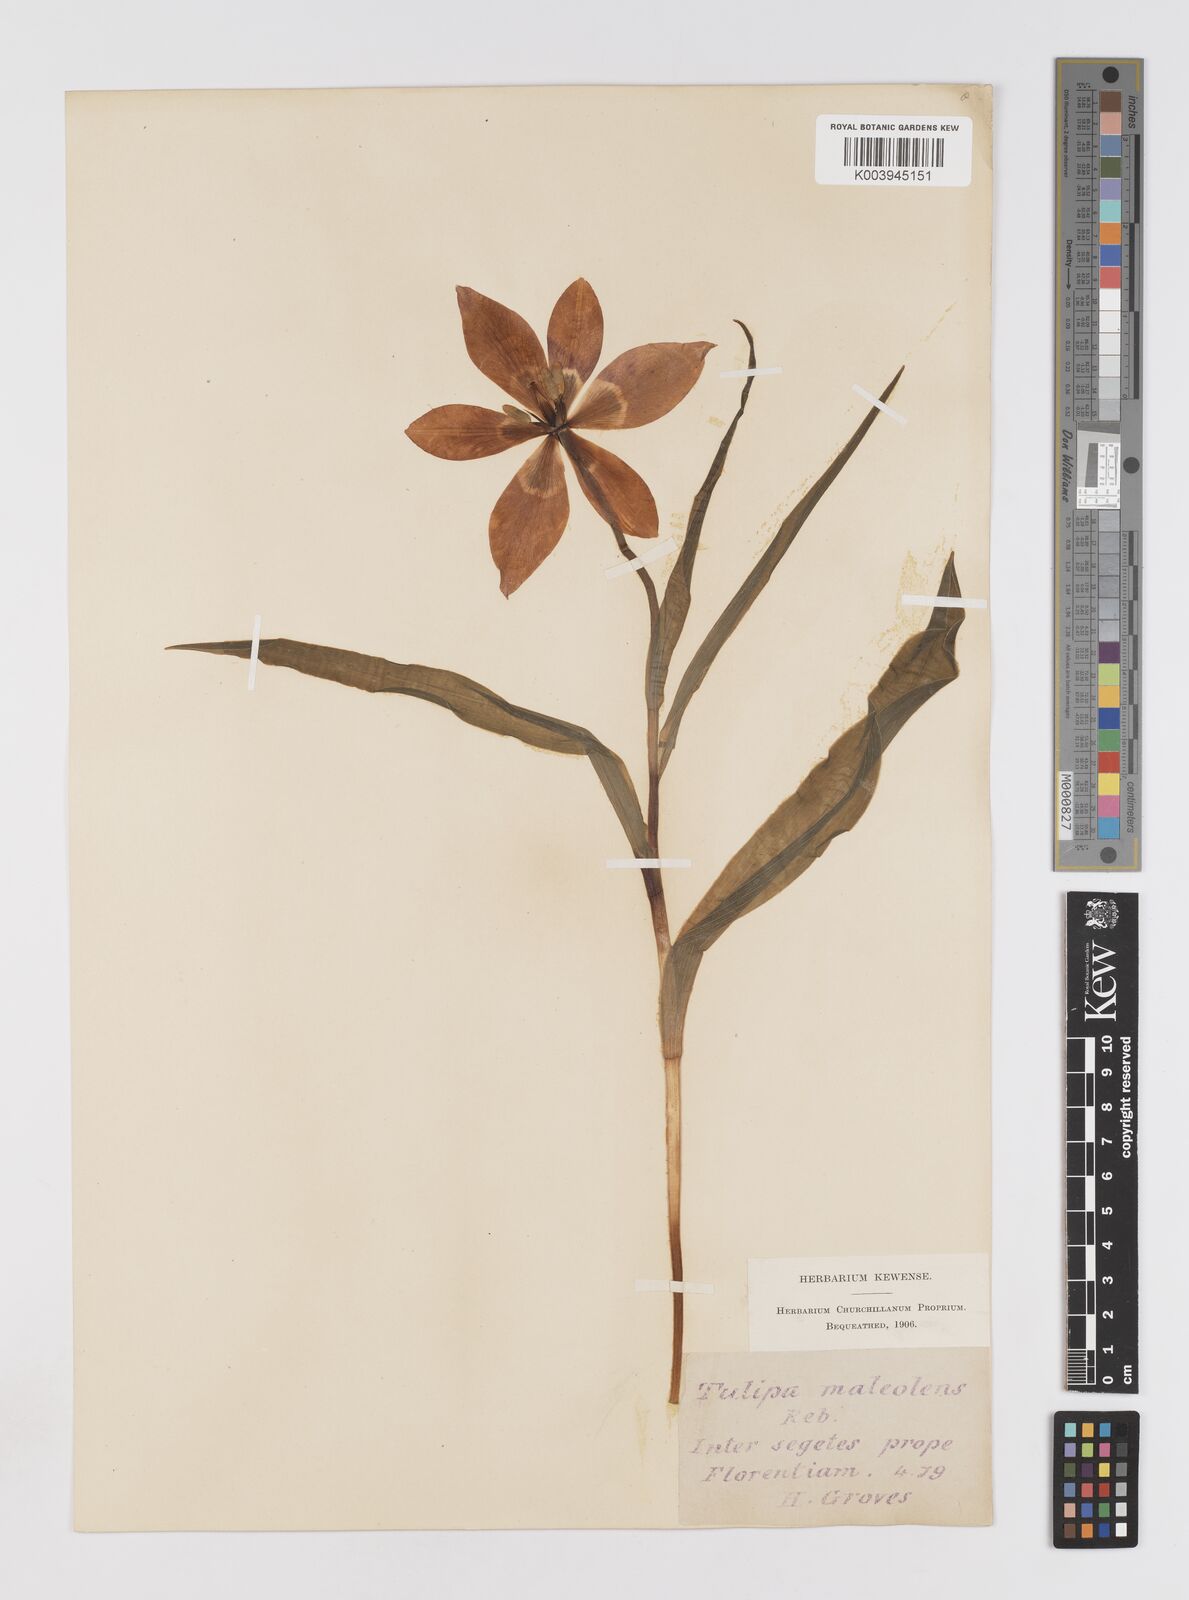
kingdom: Plantae
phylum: Tracheophyta
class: Liliopsida
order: Liliales
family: Liliaceae
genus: Tulipa
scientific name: Tulipa agenensis
